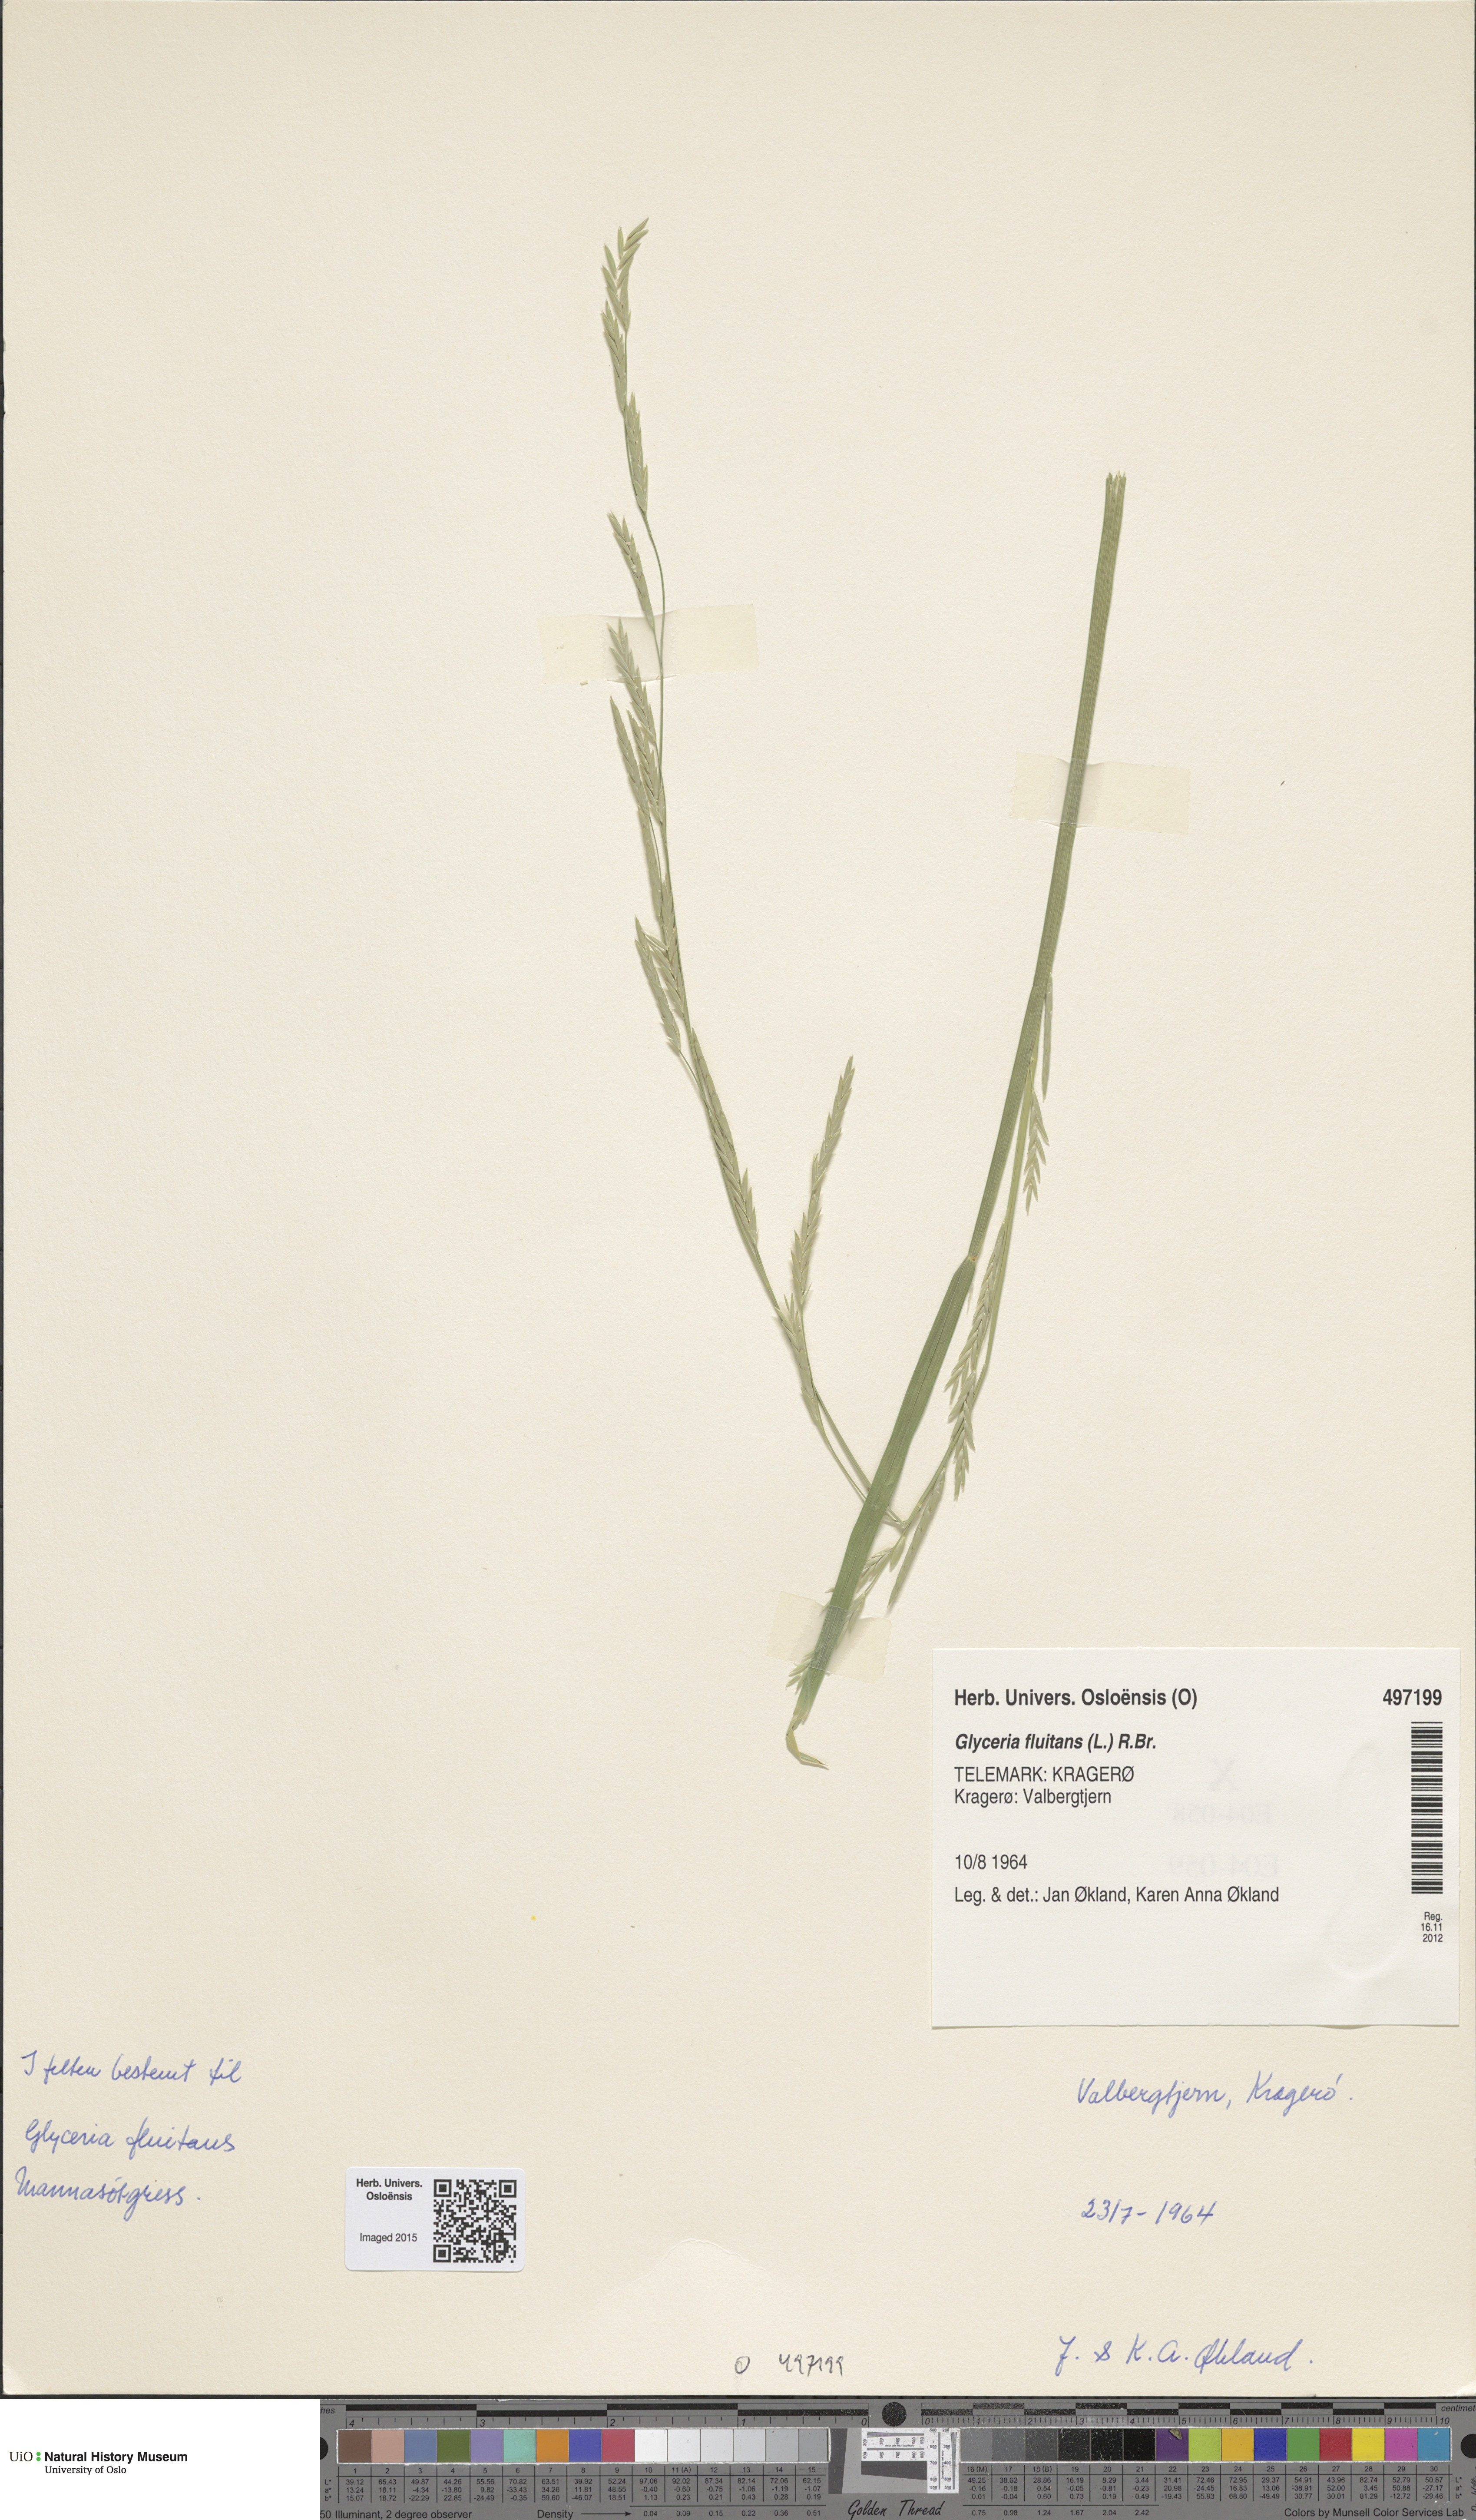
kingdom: Plantae
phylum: Tracheophyta
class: Liliopsida
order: Poales
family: Poaceae
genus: Glyceria
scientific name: Glyceria fluitans
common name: Floating sweet-grass
